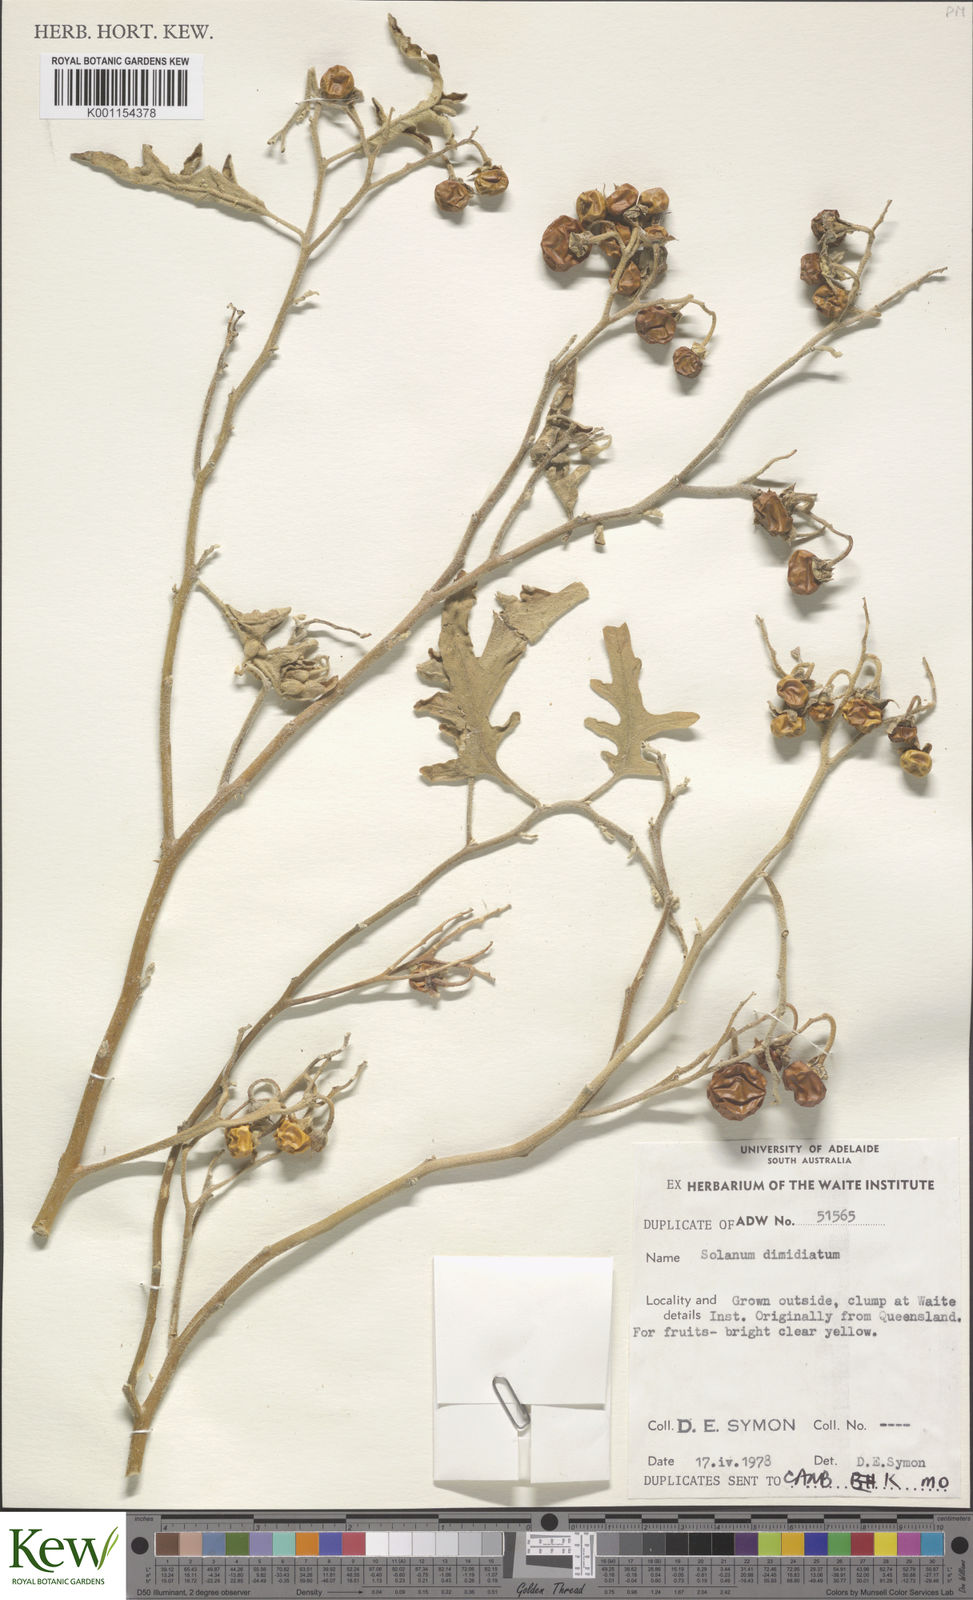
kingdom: Plantae
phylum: Tracheophyta
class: Magnoliopsida
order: Solanales
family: Solanaceae
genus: Solanum
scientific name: Solanum dimidiatum
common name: Carolina horse-nettle
